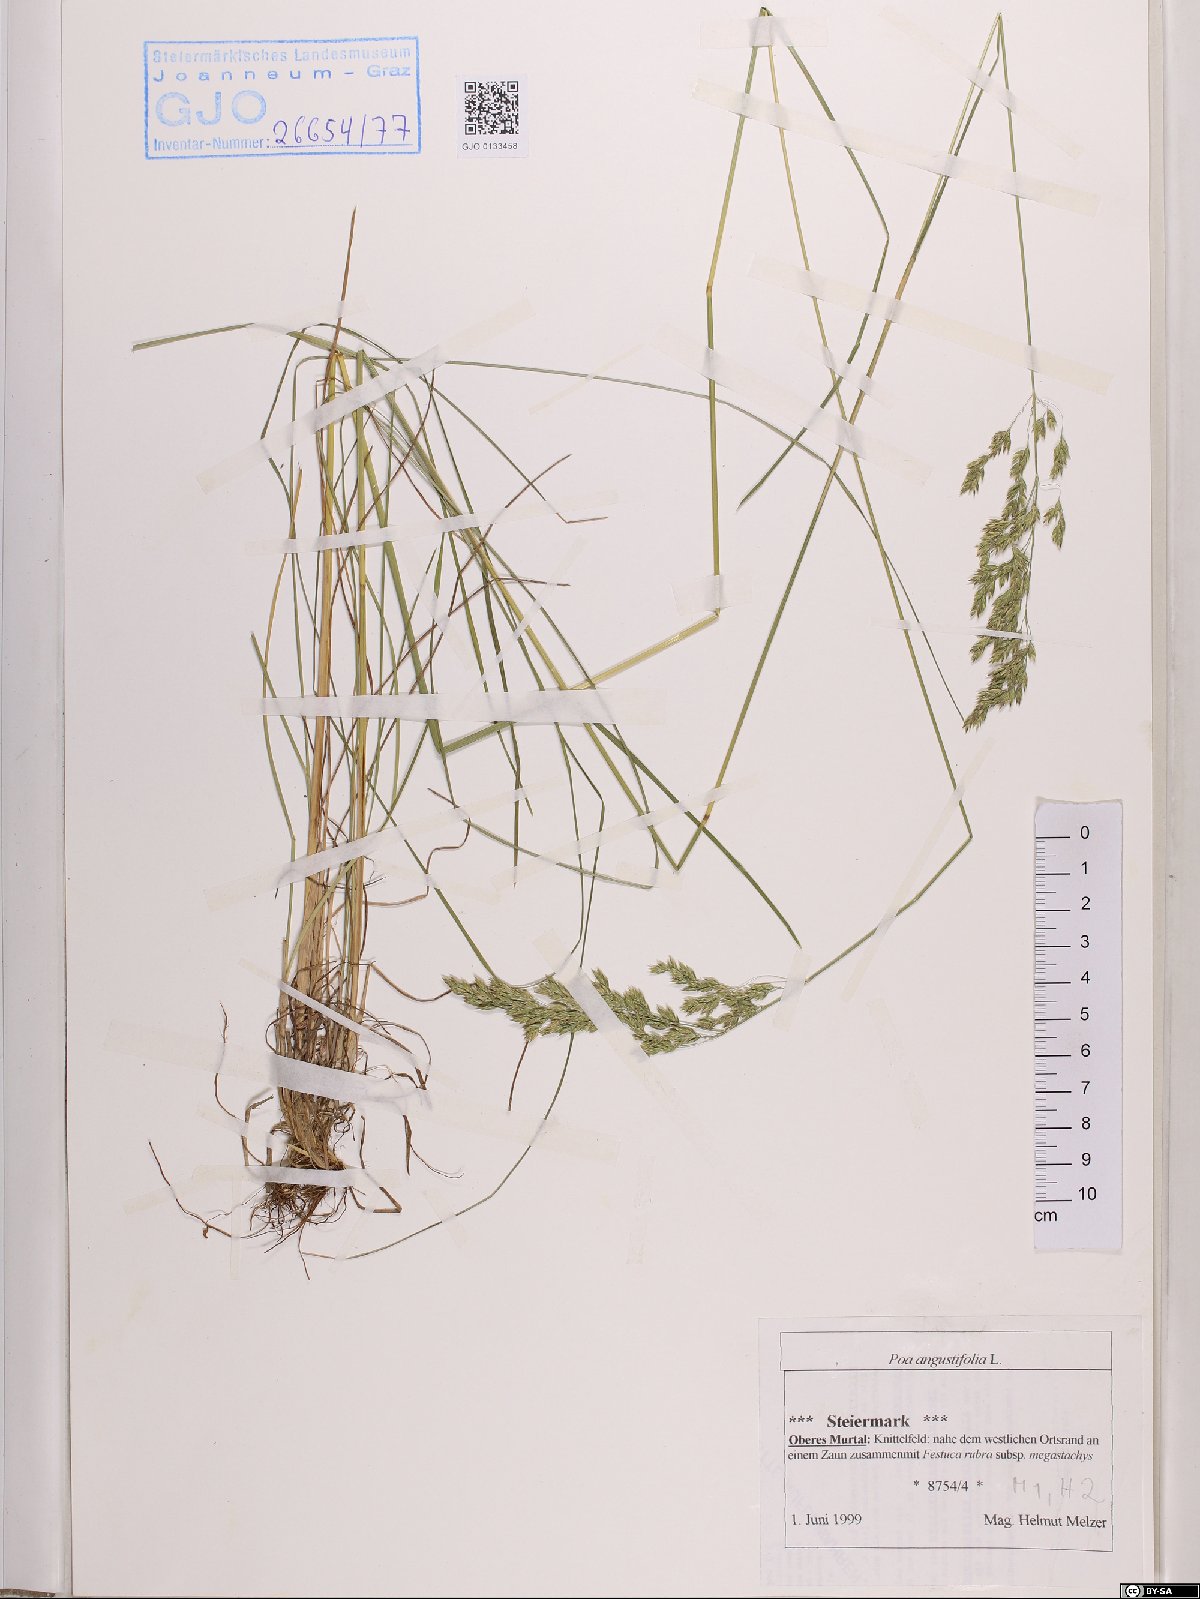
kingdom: Plantae
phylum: Tracheophyta
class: Liliopsida
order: Poales
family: Poaceae
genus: Poa
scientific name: Poa angustifolia
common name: Narrow-leaved meadow-grass
